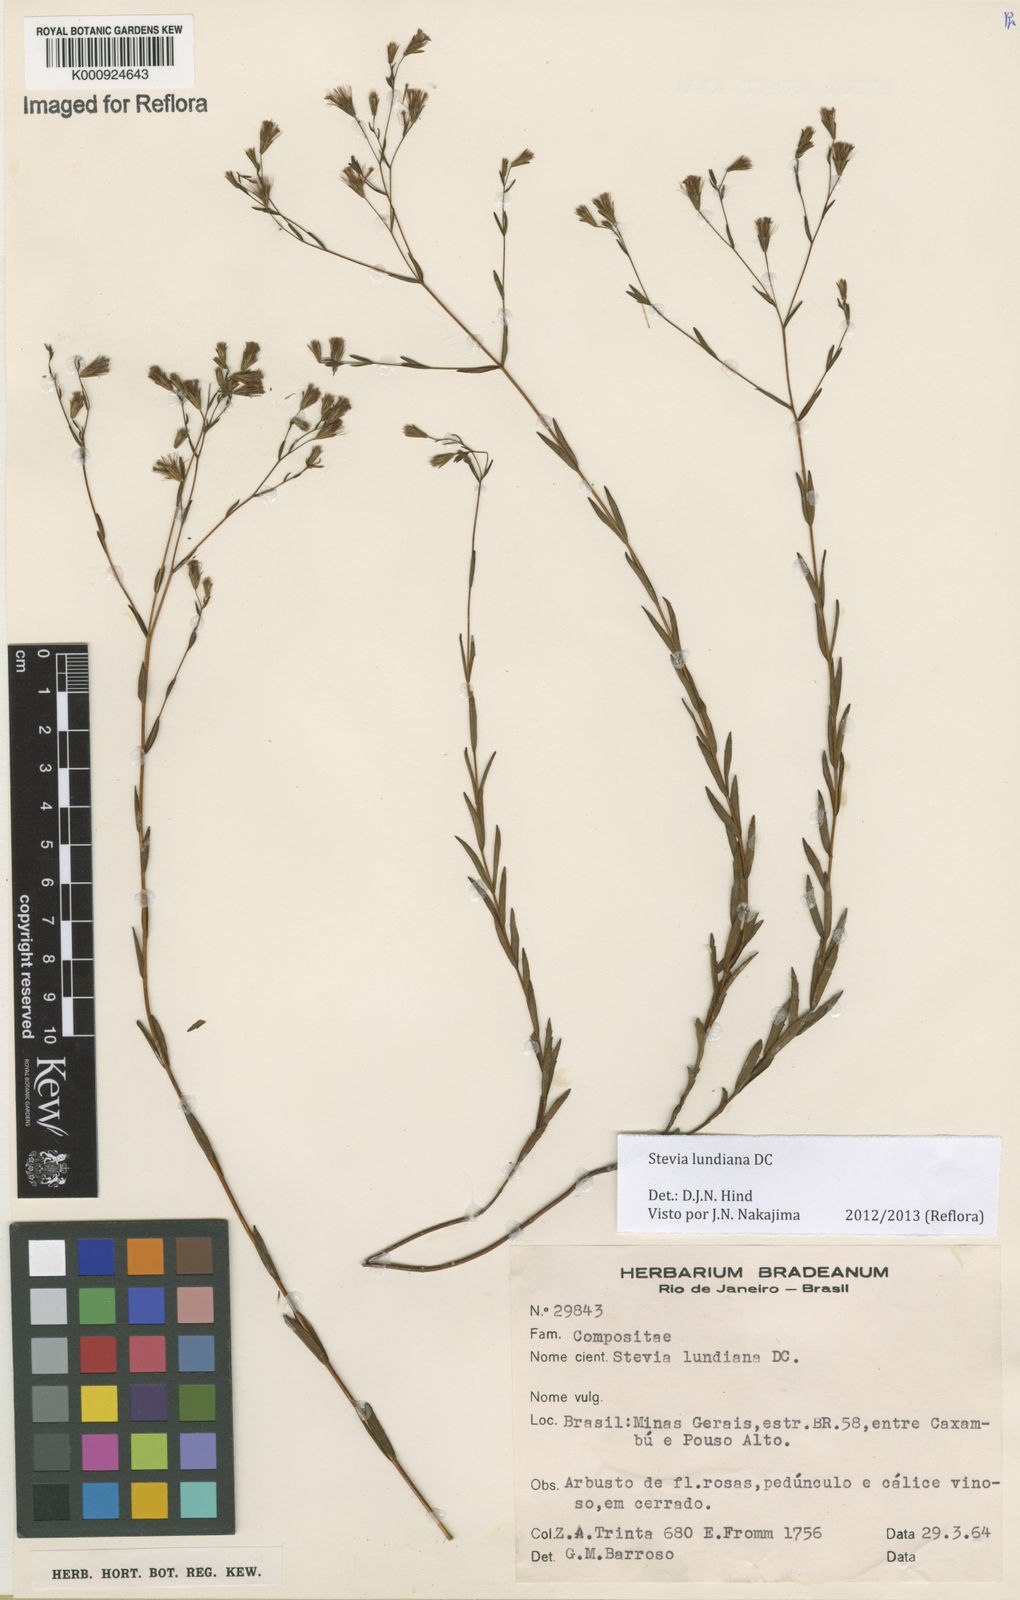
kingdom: Plantae
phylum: Tracheophyta
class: Magnoliopsida
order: Asterales
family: Asteraceae
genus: Stevia
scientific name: Stevia lundiana
